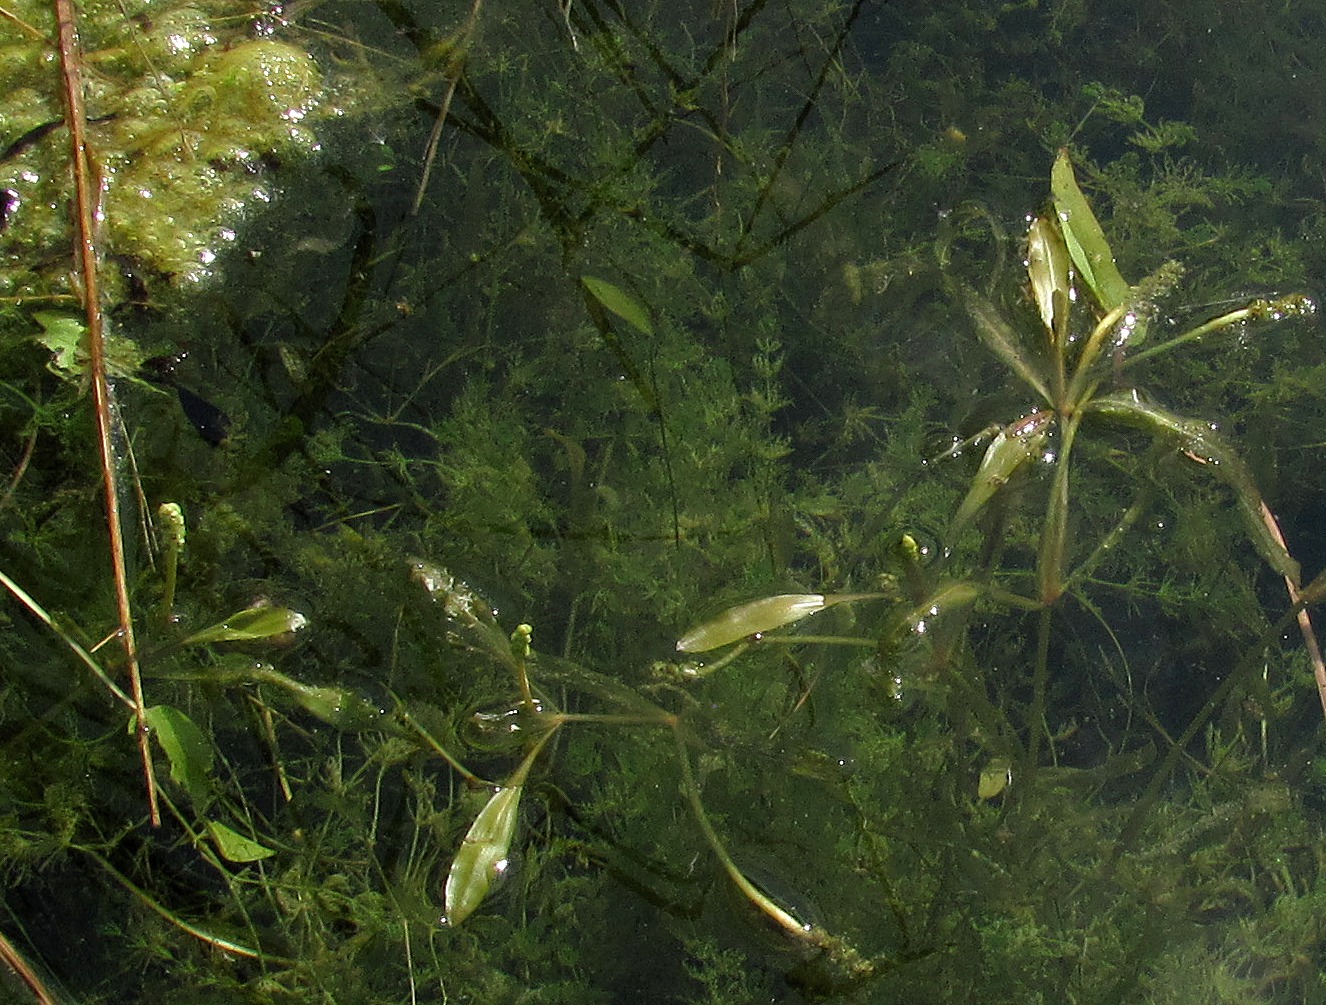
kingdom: Plantae
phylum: Tracheophyta
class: Liliopsida
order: Alismatales
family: Potamogetonaceae
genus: Potamogeton
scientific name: Potamogeton alpinus
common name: Rust-vandaks
